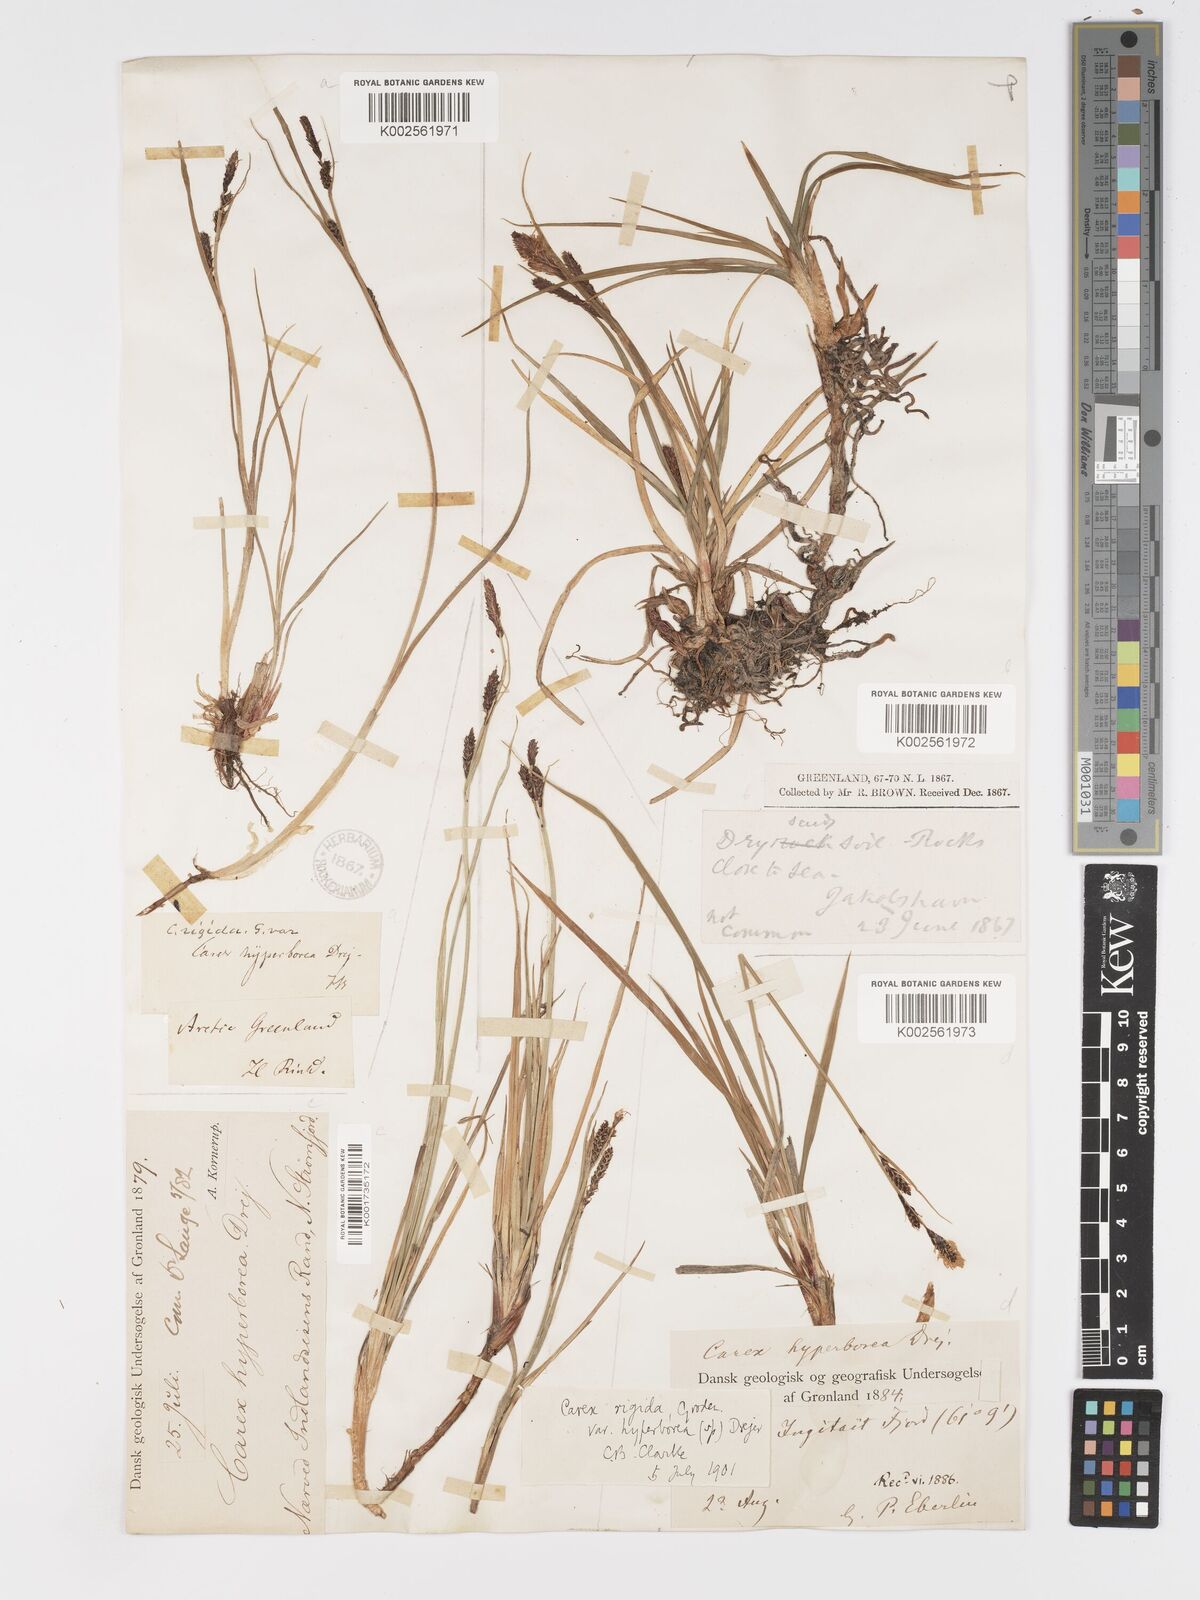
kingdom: Plantae
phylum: Tracheophyta
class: Liliopsida
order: Poales
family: Cyperaceae
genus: Carex
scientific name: Carex bigelowii
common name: Stiff sedge
